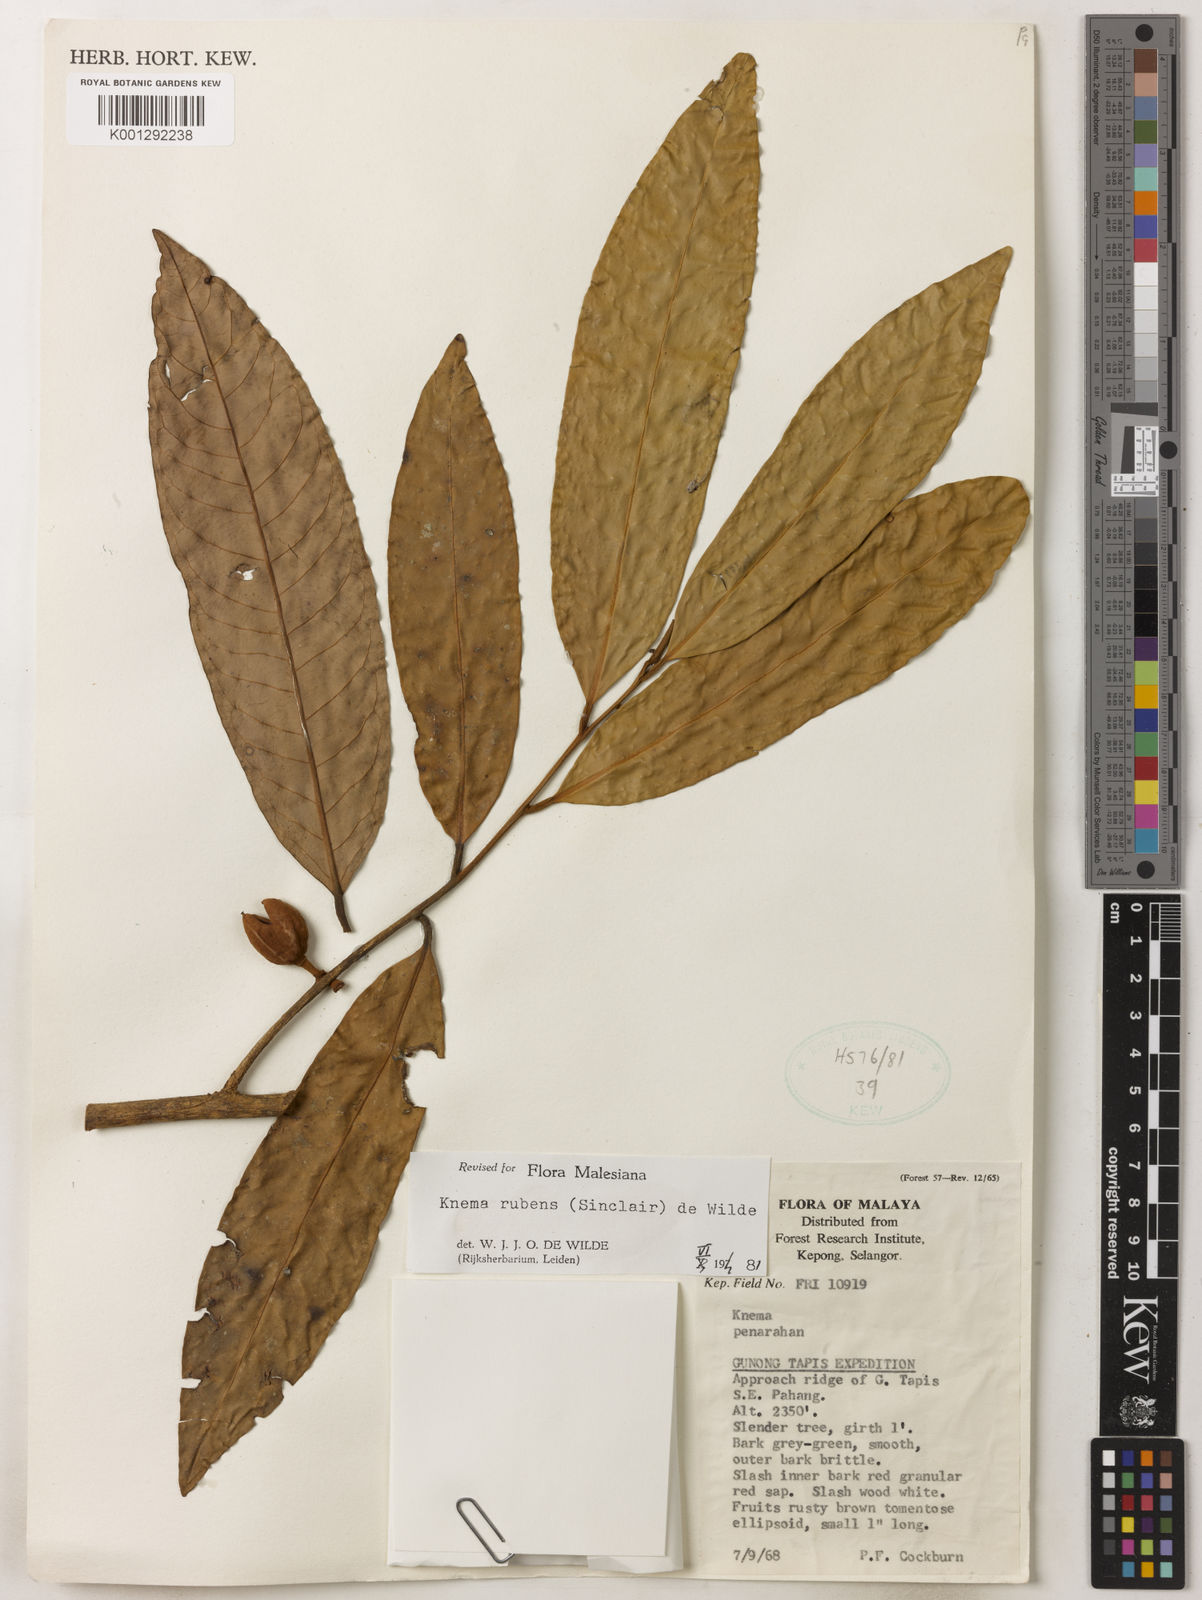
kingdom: Plantae
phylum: Tracheophyta
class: Magnoliopsida
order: Magnoliales
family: Myristicaceae
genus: Knema
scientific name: Knema rubens
